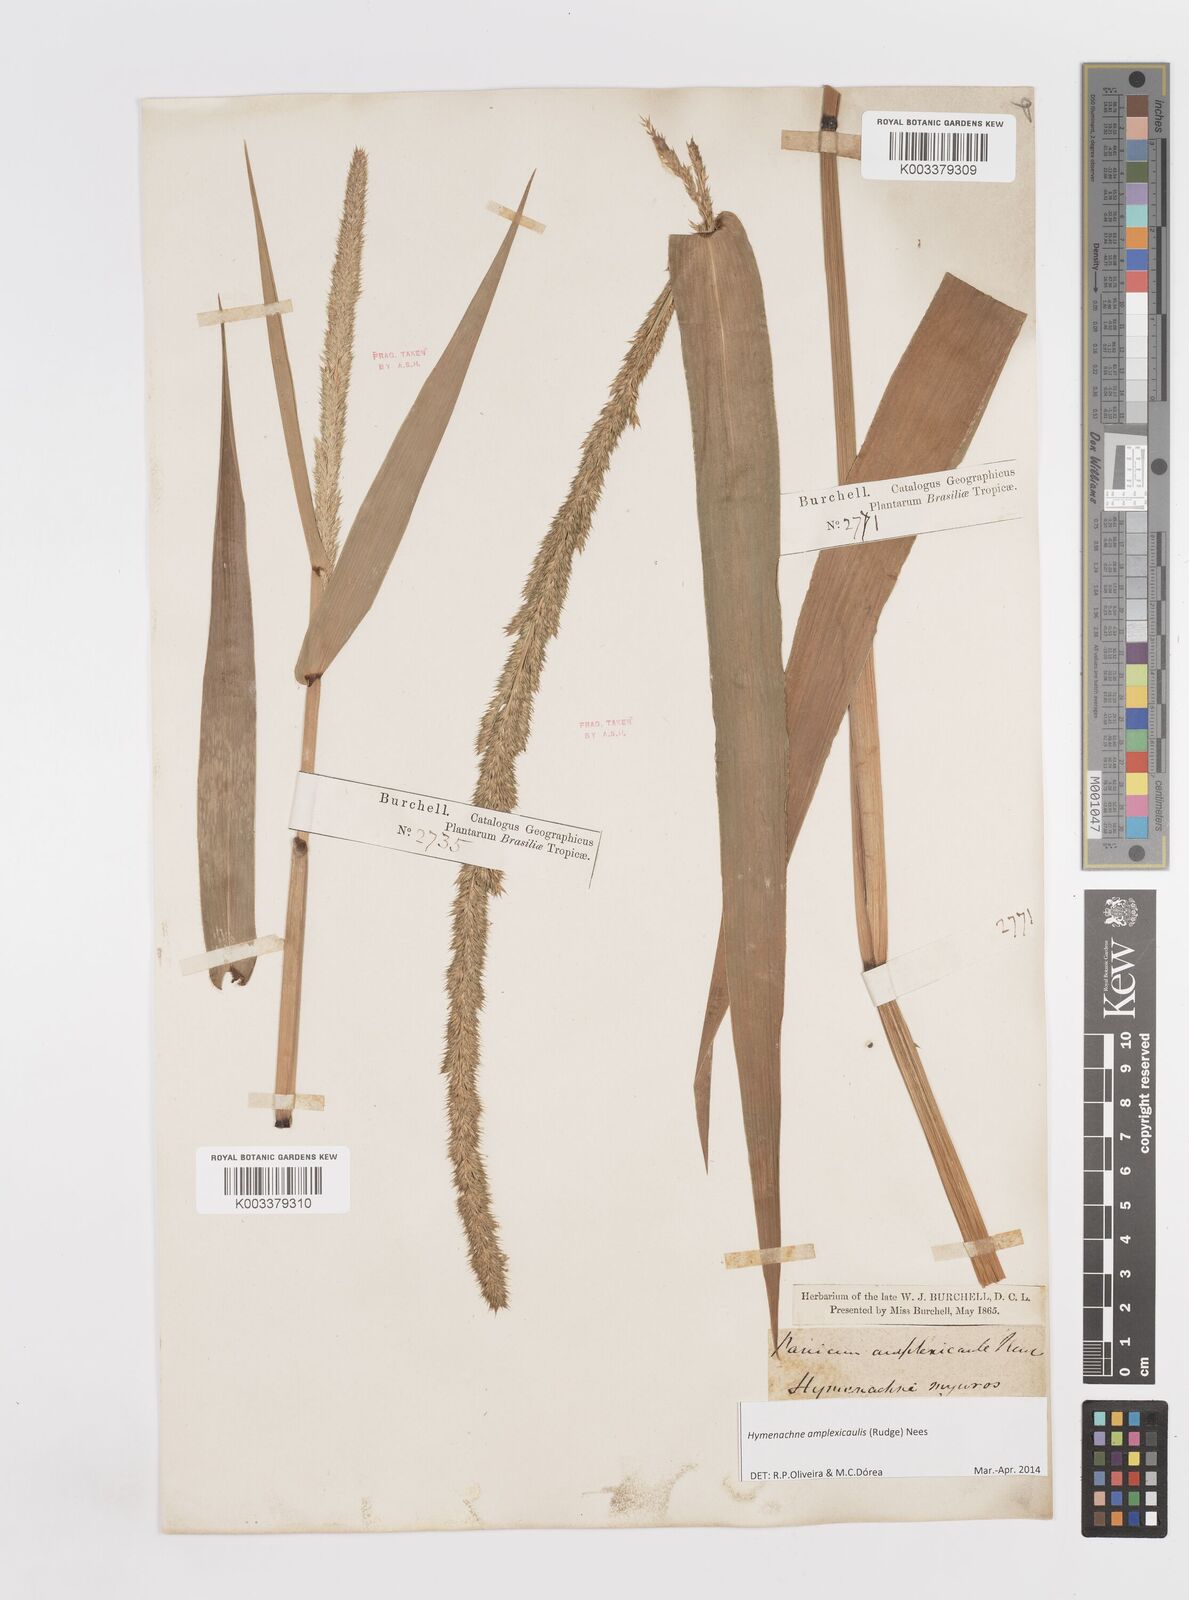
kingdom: Plantae
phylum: Tracheophyta
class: Liliopsida
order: Poales
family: Poaceae
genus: Hymenachne
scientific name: Hymenachne amplexicaulis
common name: Olive hymenachne
